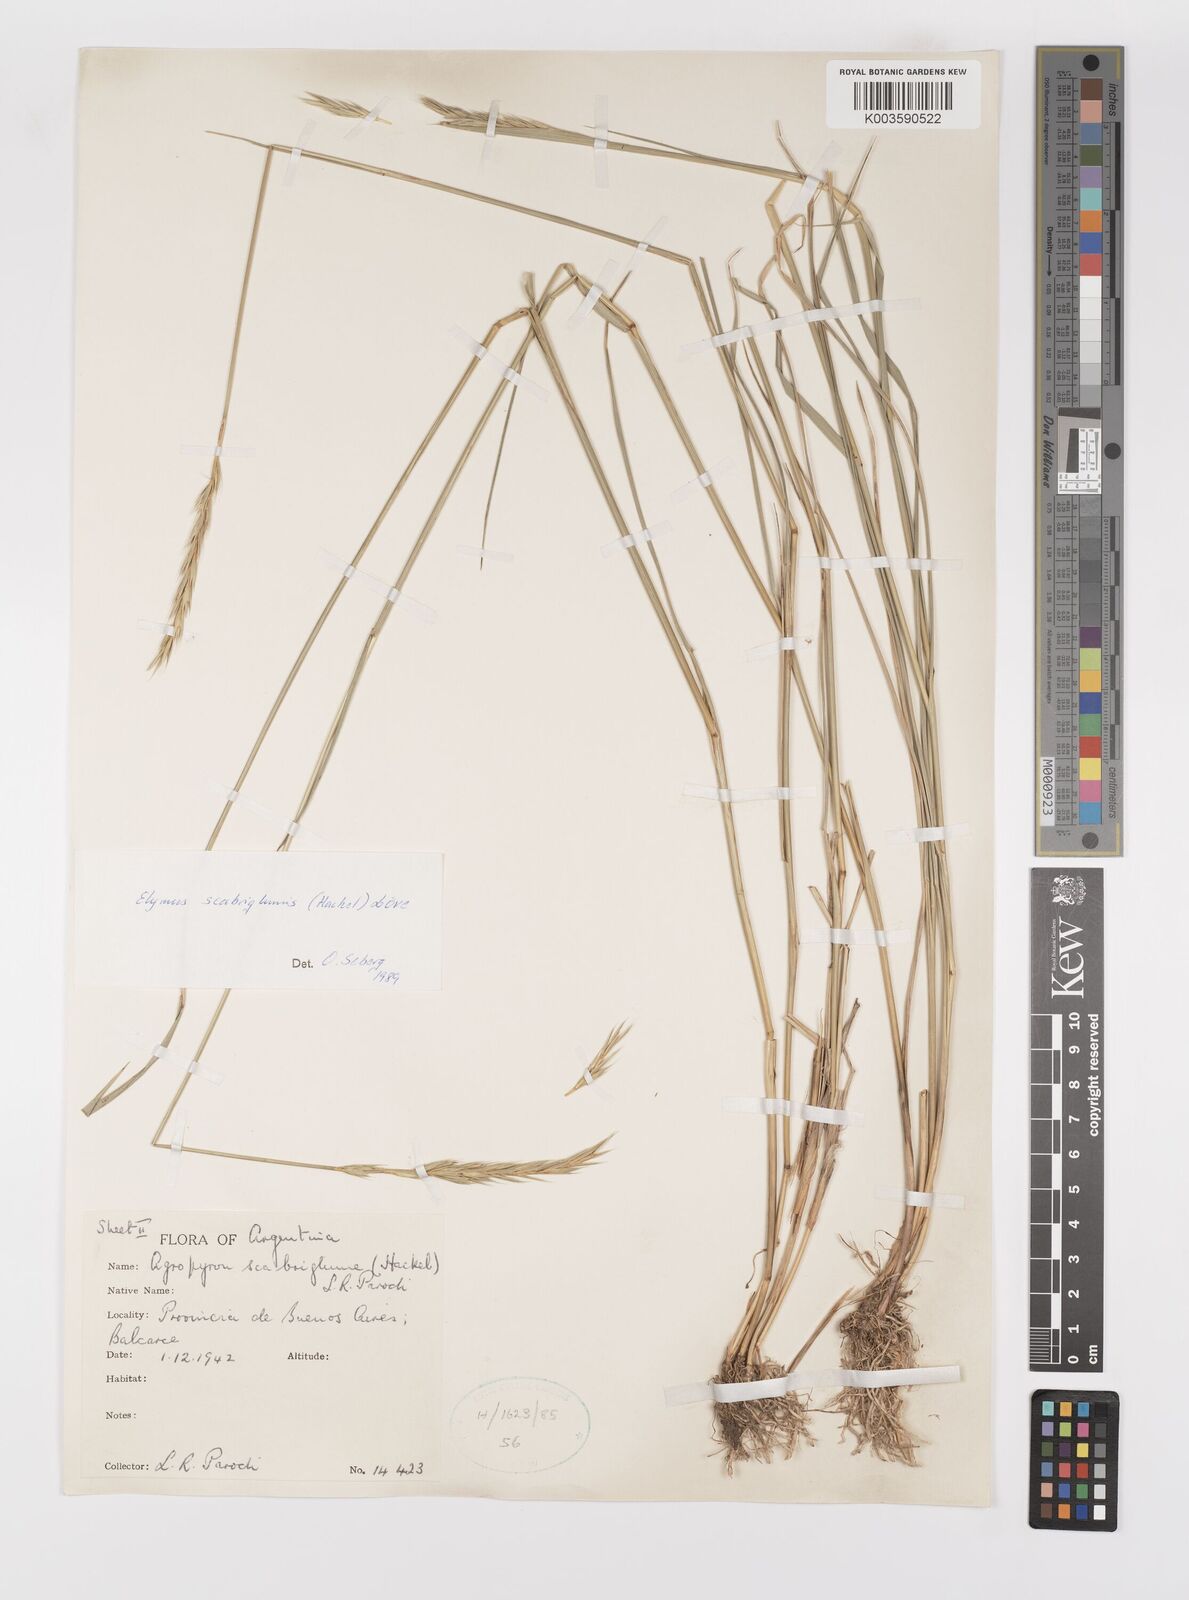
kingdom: Plantae
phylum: Tracheophyta
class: Liliopsida
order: Poales
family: Poaceae
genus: Elymus
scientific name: Elymus scabriglumis
